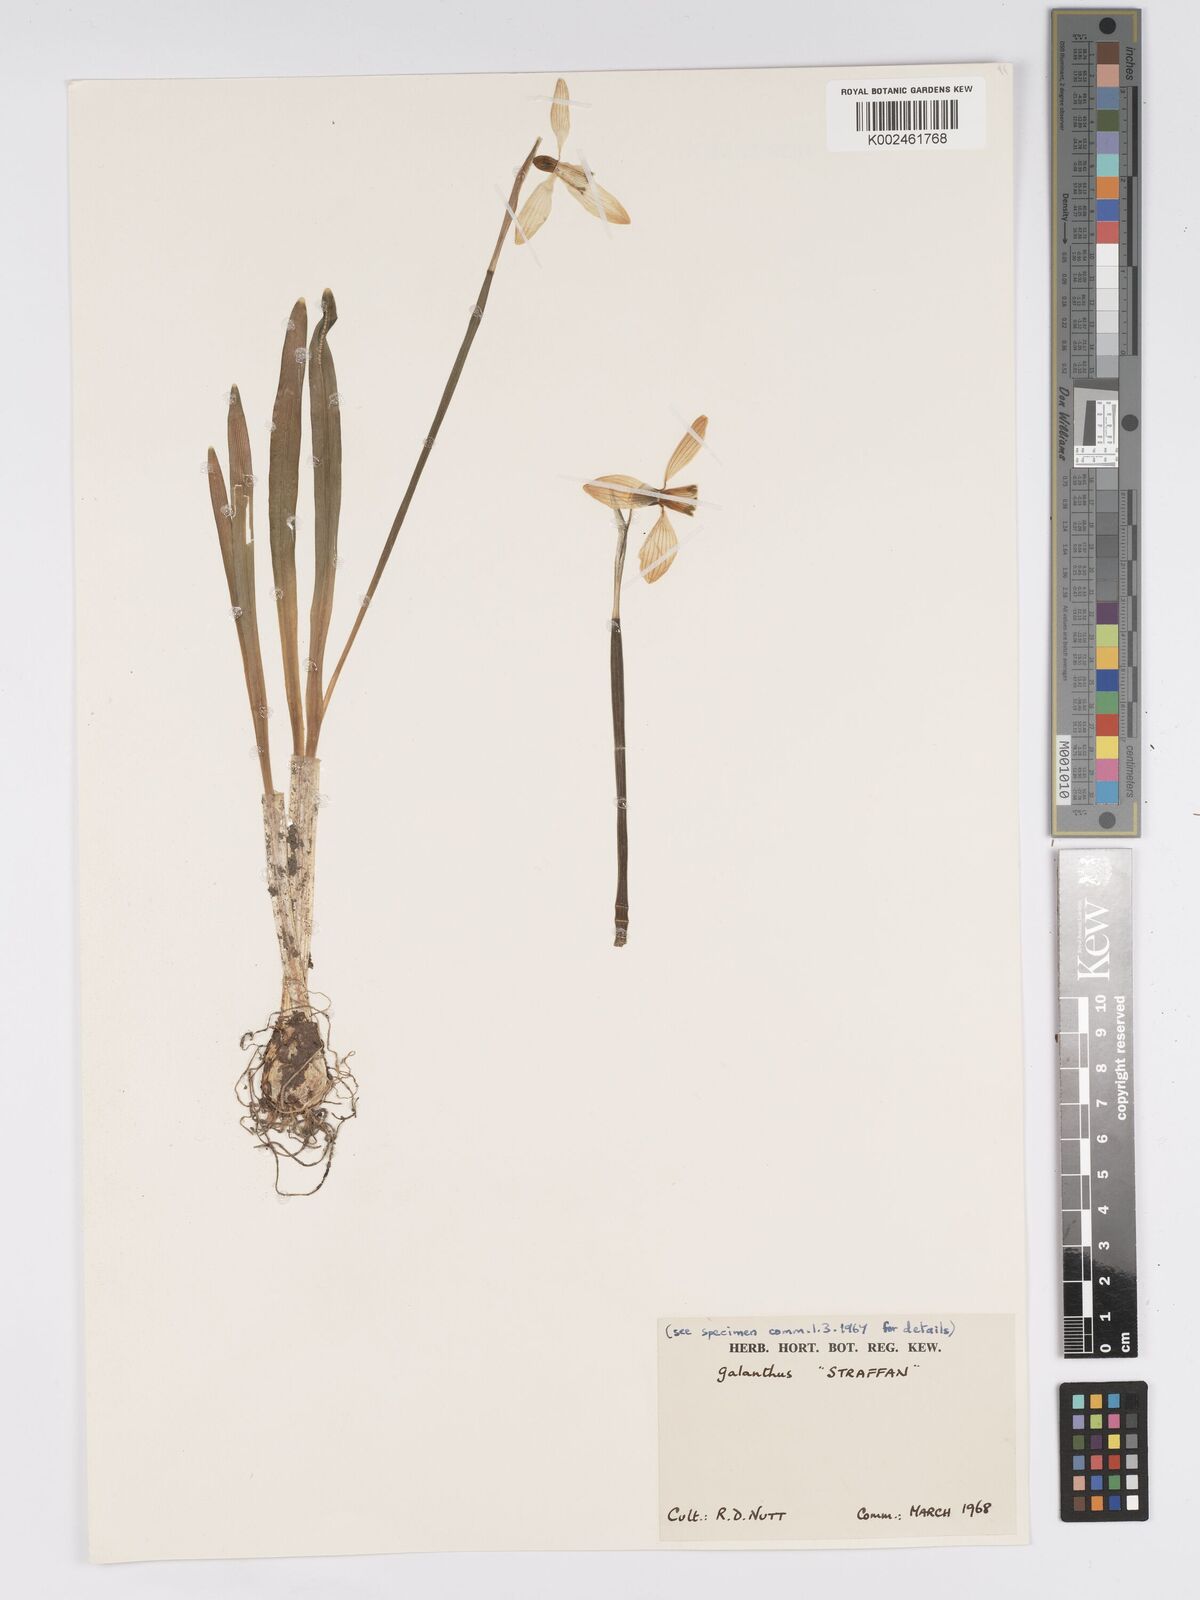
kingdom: Plantae
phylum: Tracheophyta
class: Liliopsida
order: Asparagales
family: Amaryllidaceae
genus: Galanthus
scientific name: Galanthus
